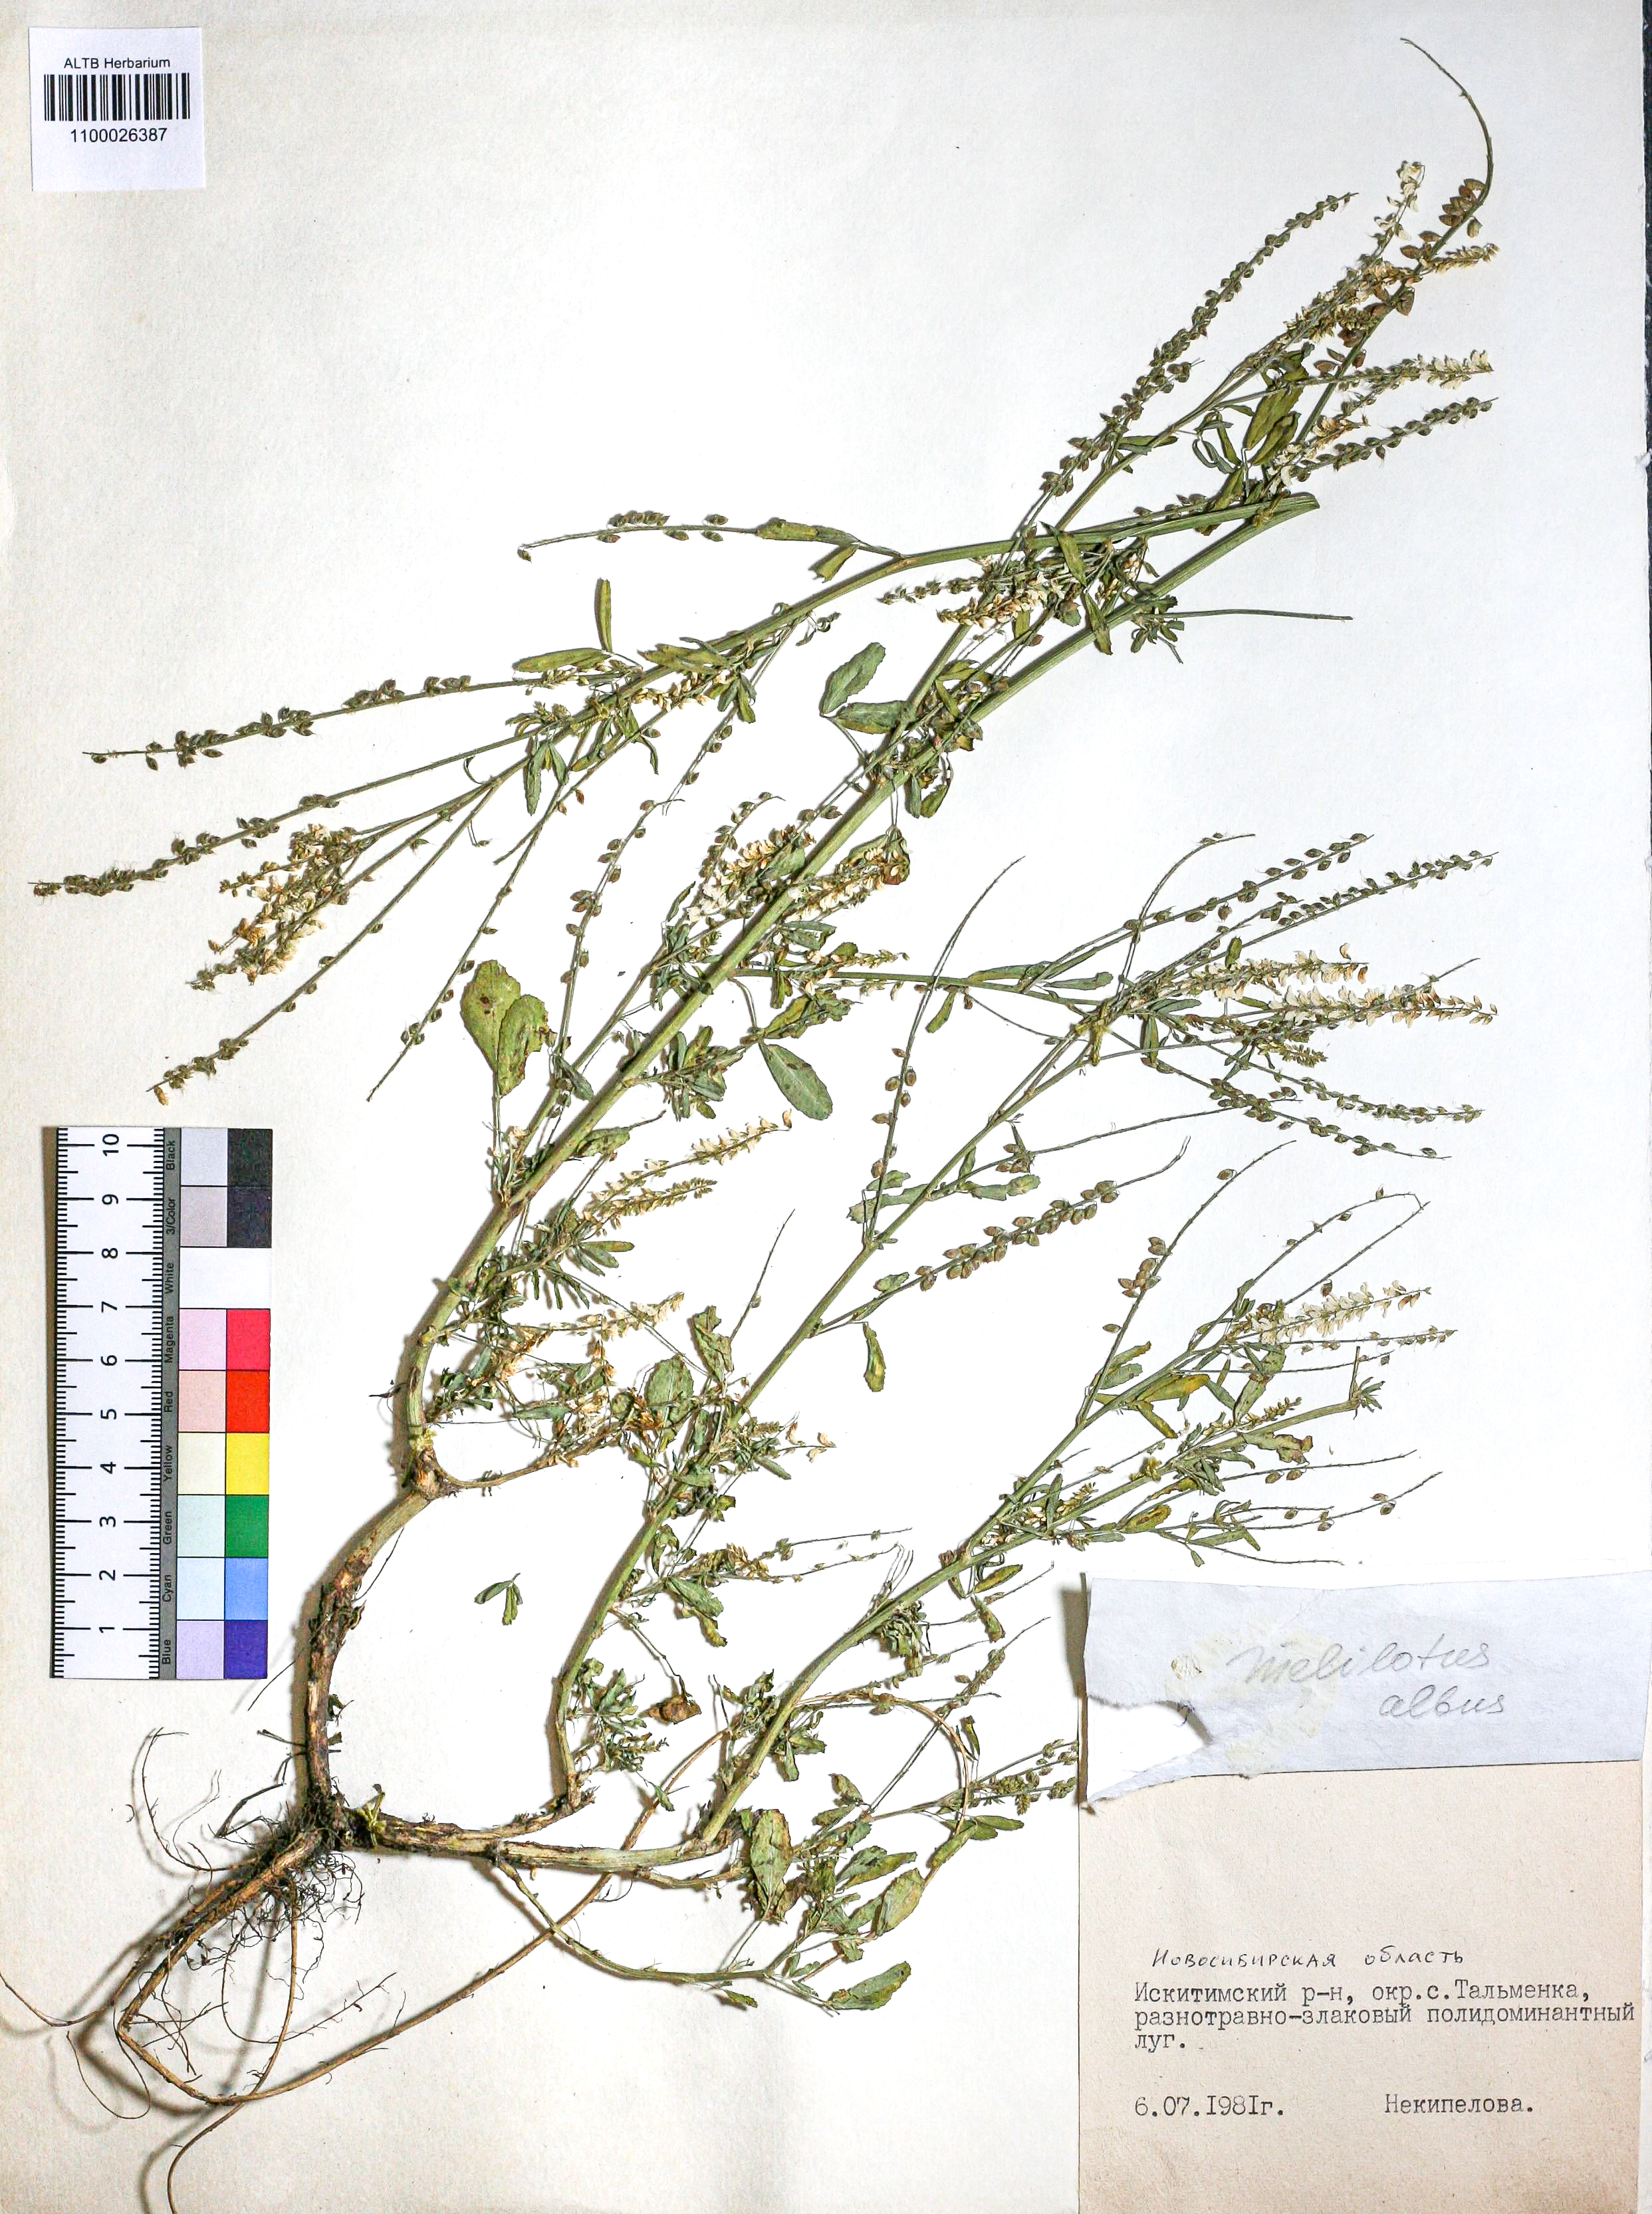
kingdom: Plantae
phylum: Tracheophyta
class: Magnoliopsida
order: Fabales
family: Fabaceae
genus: Melilotus
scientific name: Melilotus albus
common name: White melilot
